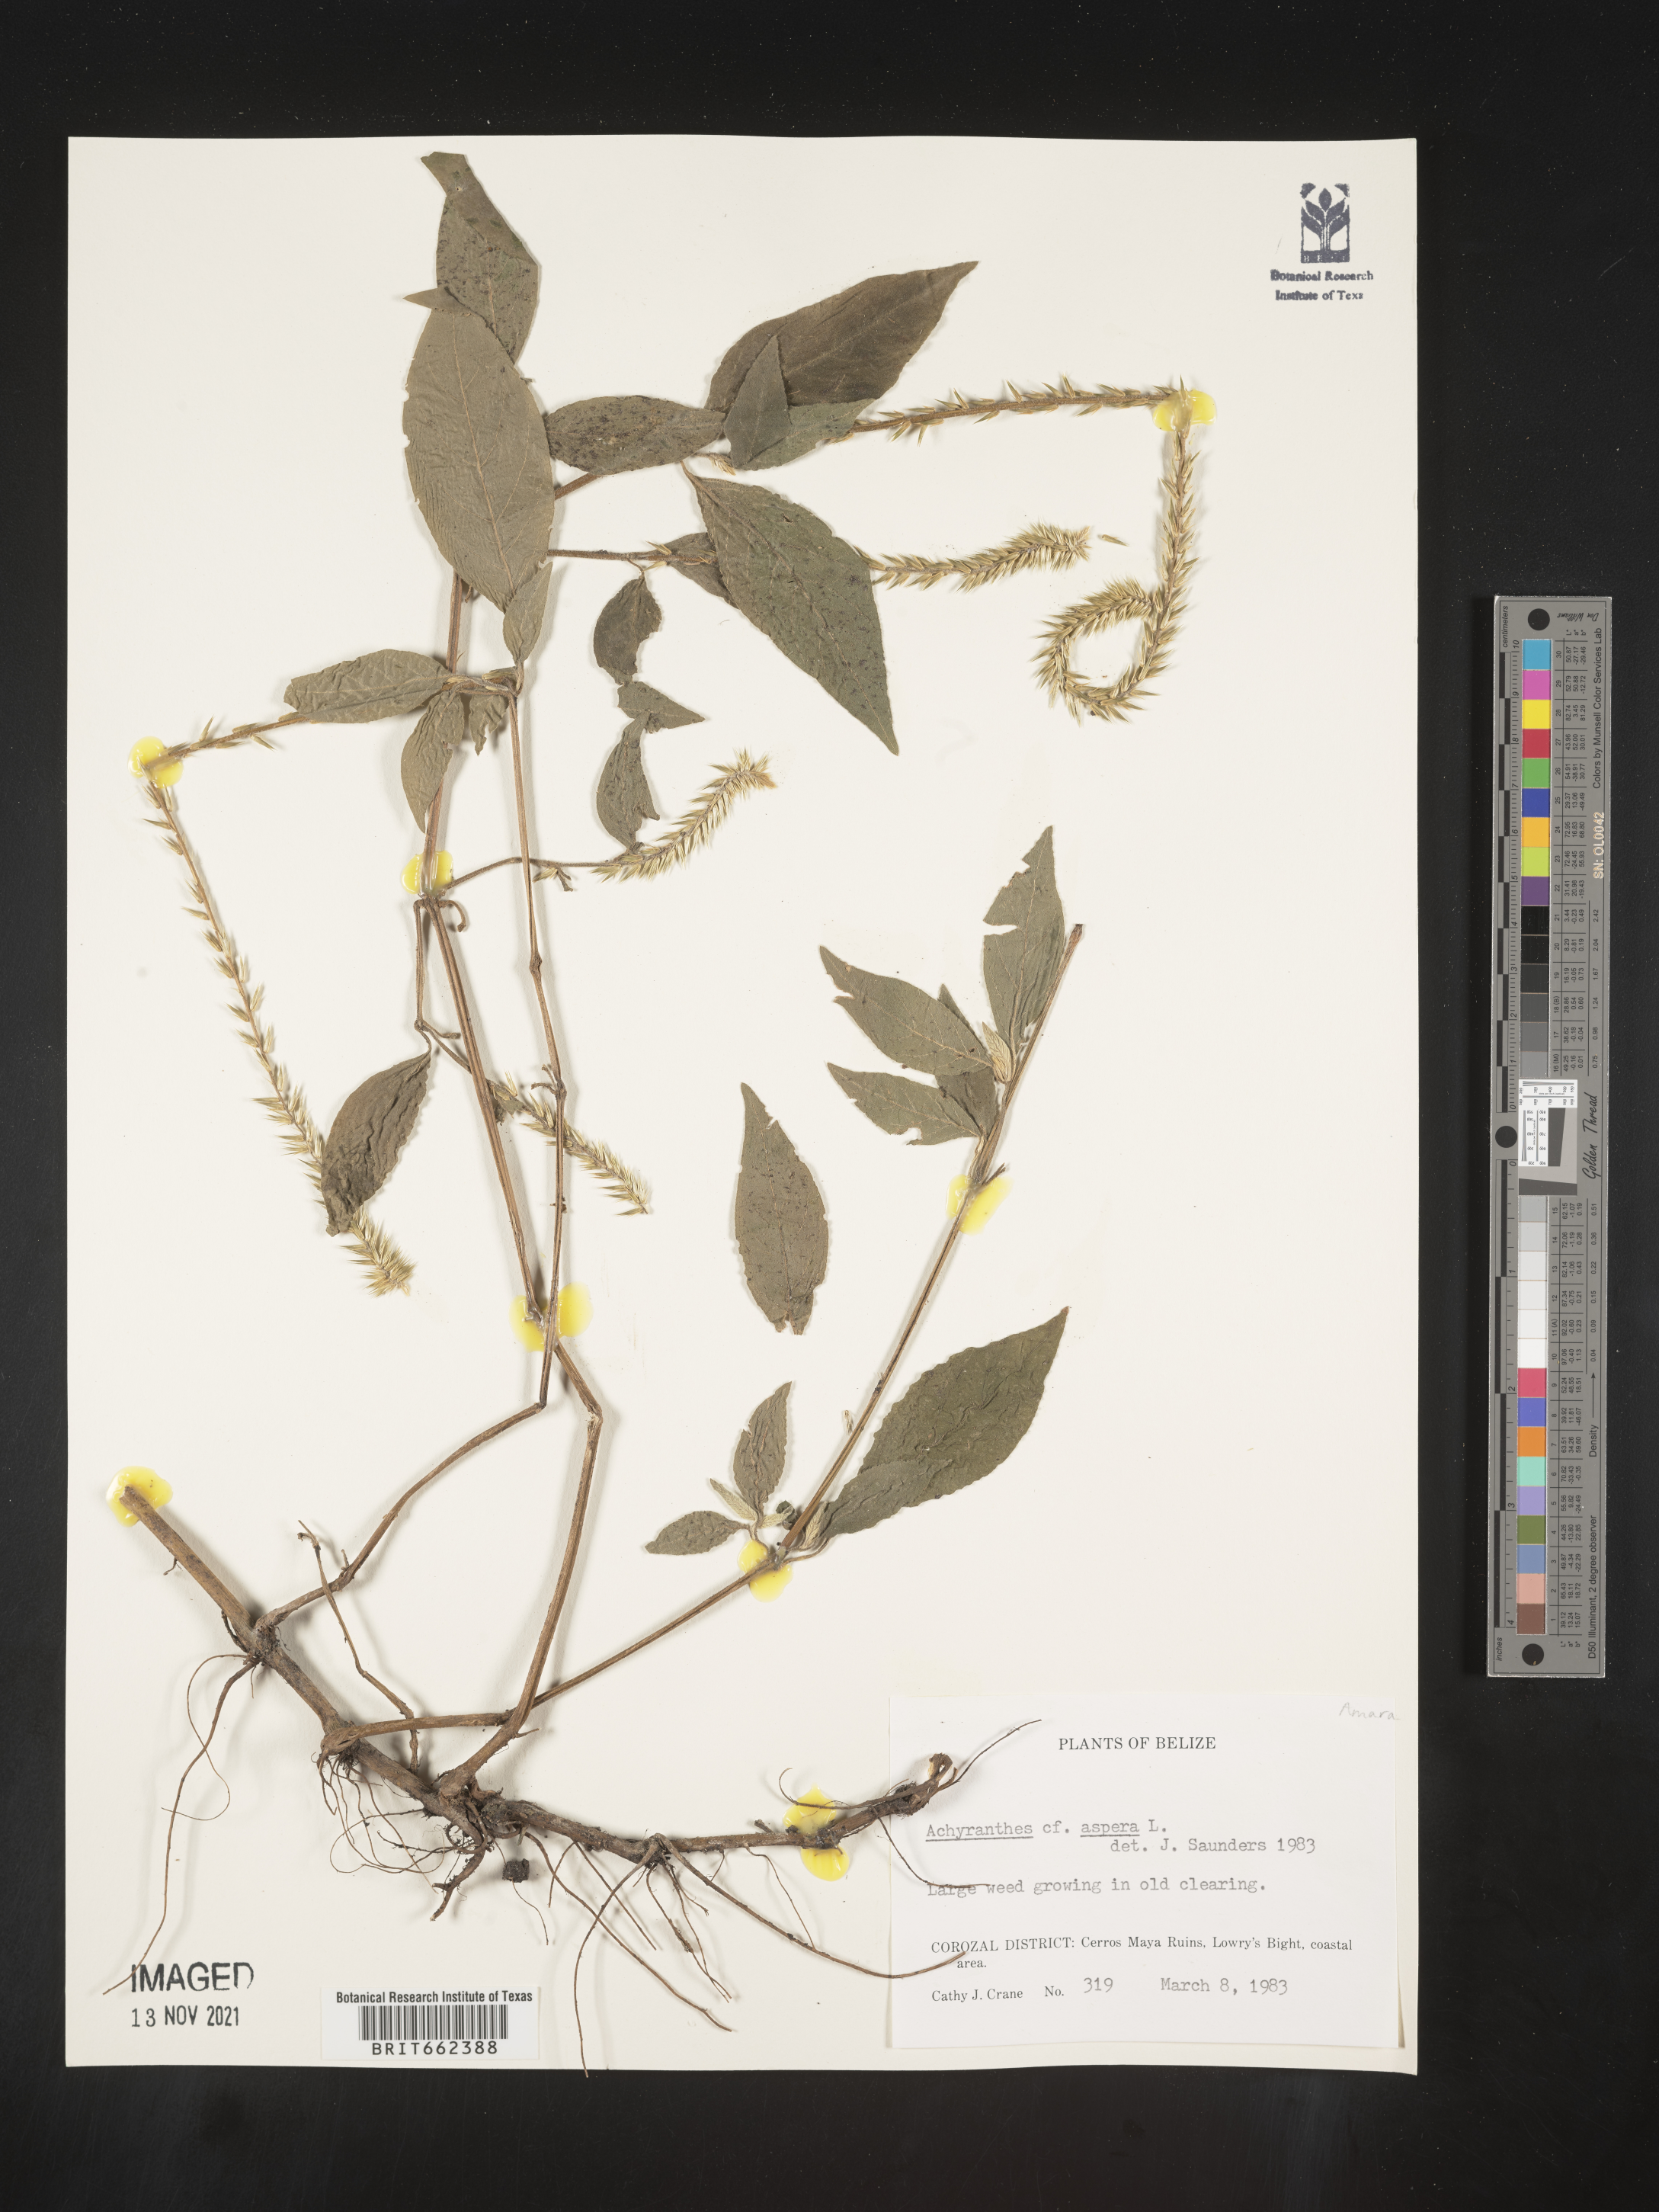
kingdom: Plantae
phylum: Tracheophyta
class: Magnoliopsida
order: Caryophyllales
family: Amaranthaceae
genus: Achyranthes
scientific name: Achyranthes
